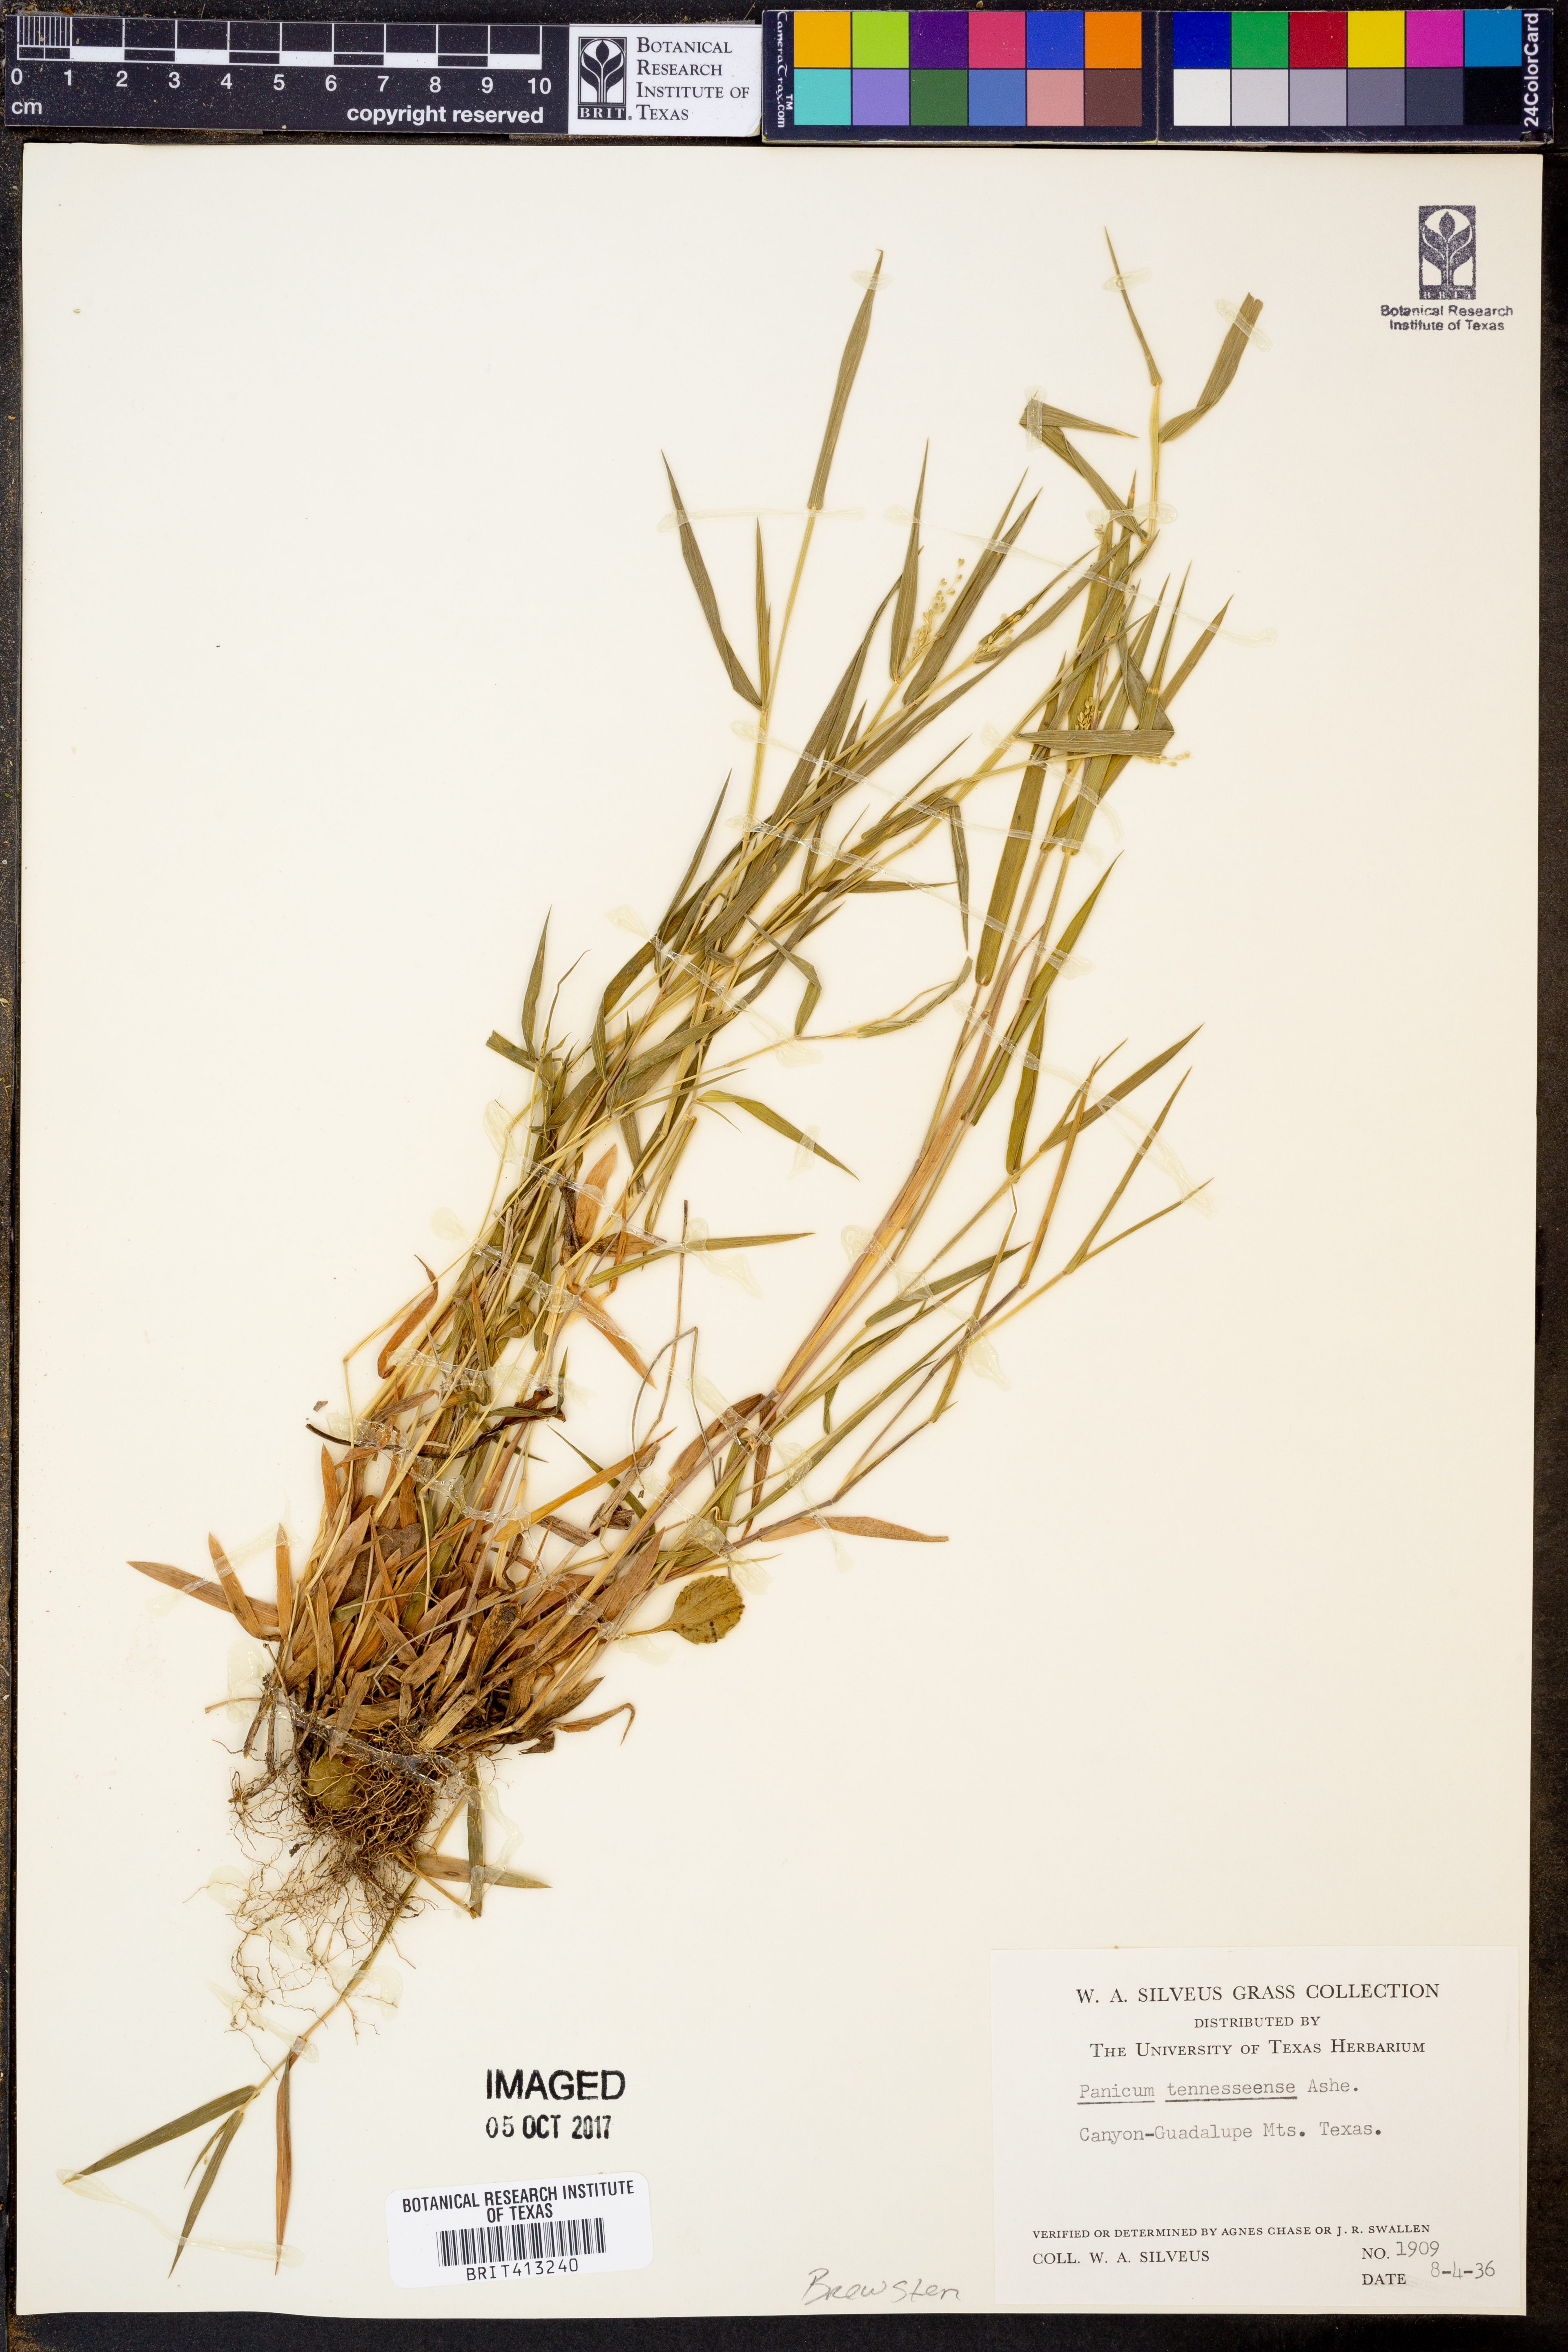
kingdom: Plantae
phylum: Tracheophyta
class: Liliopsida
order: Poales
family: Poaceae
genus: Dichanthelium
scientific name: Dichanthelium lanuginosum
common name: Woolly panicgrass
